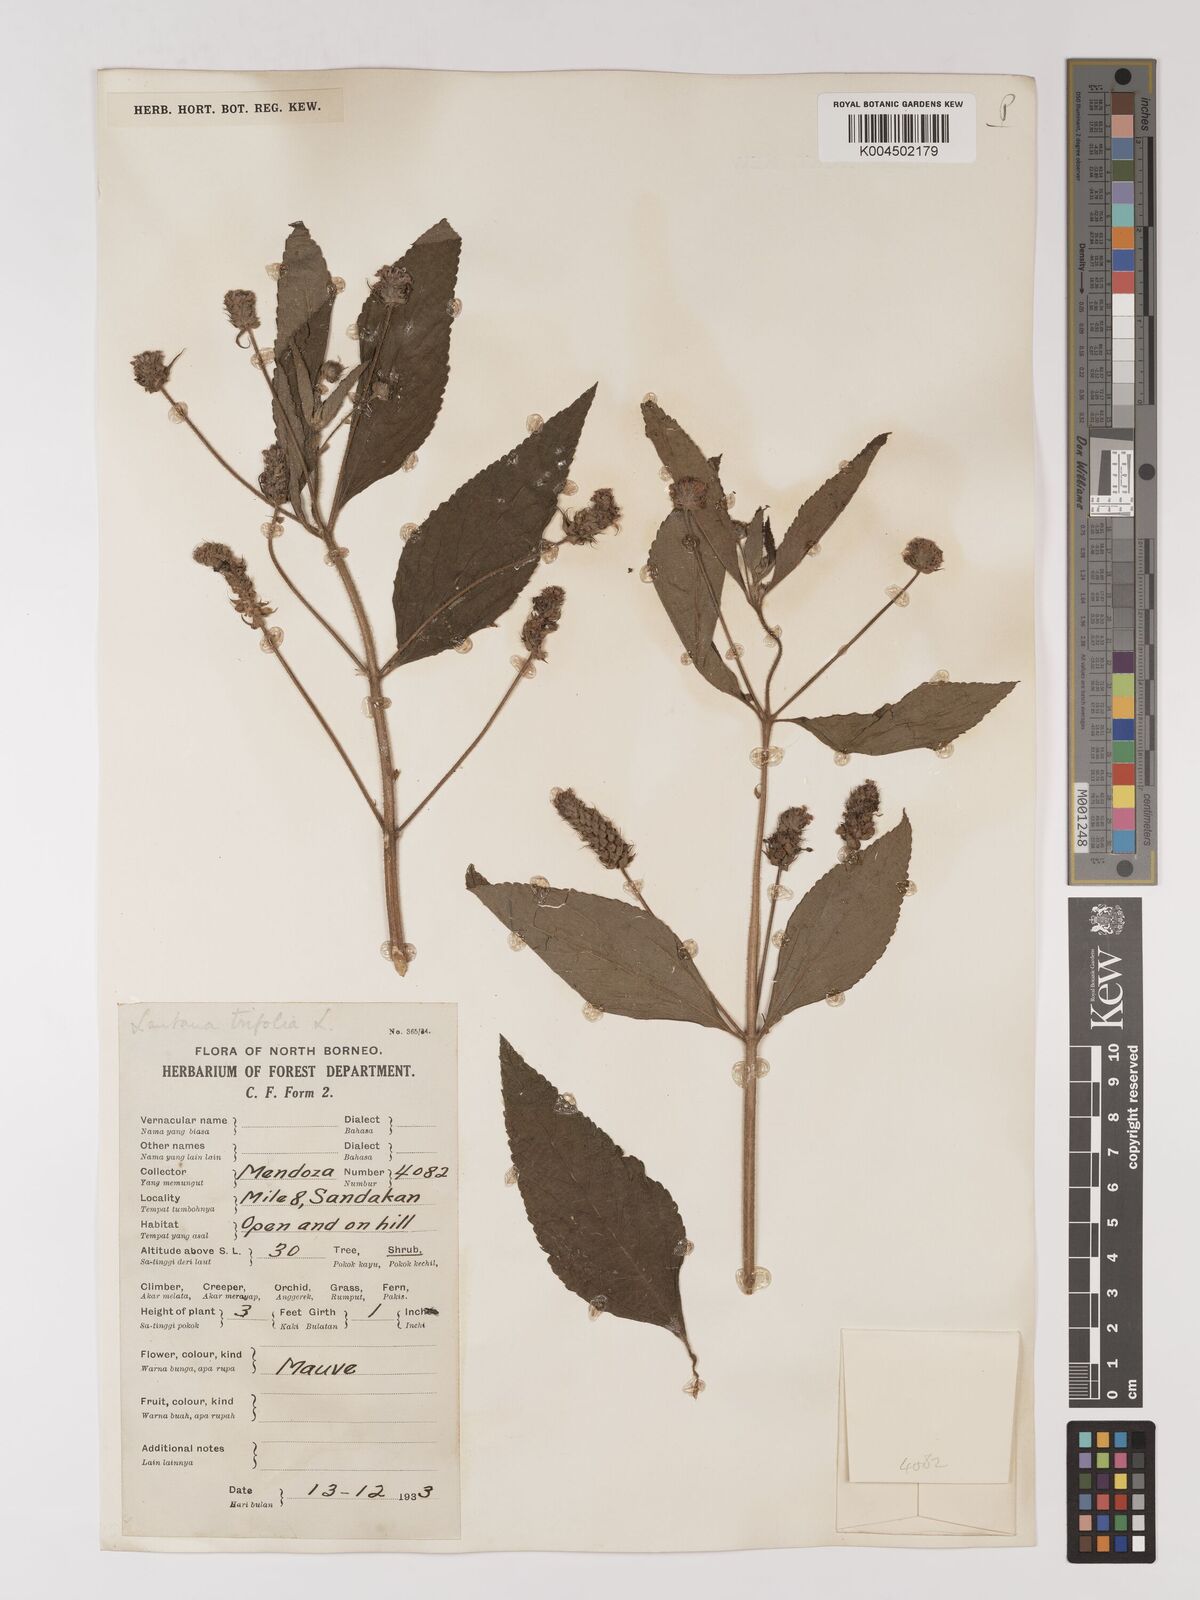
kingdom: Plantae
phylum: Tracheophyta
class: Magnoliopsida
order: Lamiales
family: Verbenaceae
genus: Lantana
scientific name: Lantana trifolia
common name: Sweet-sage
